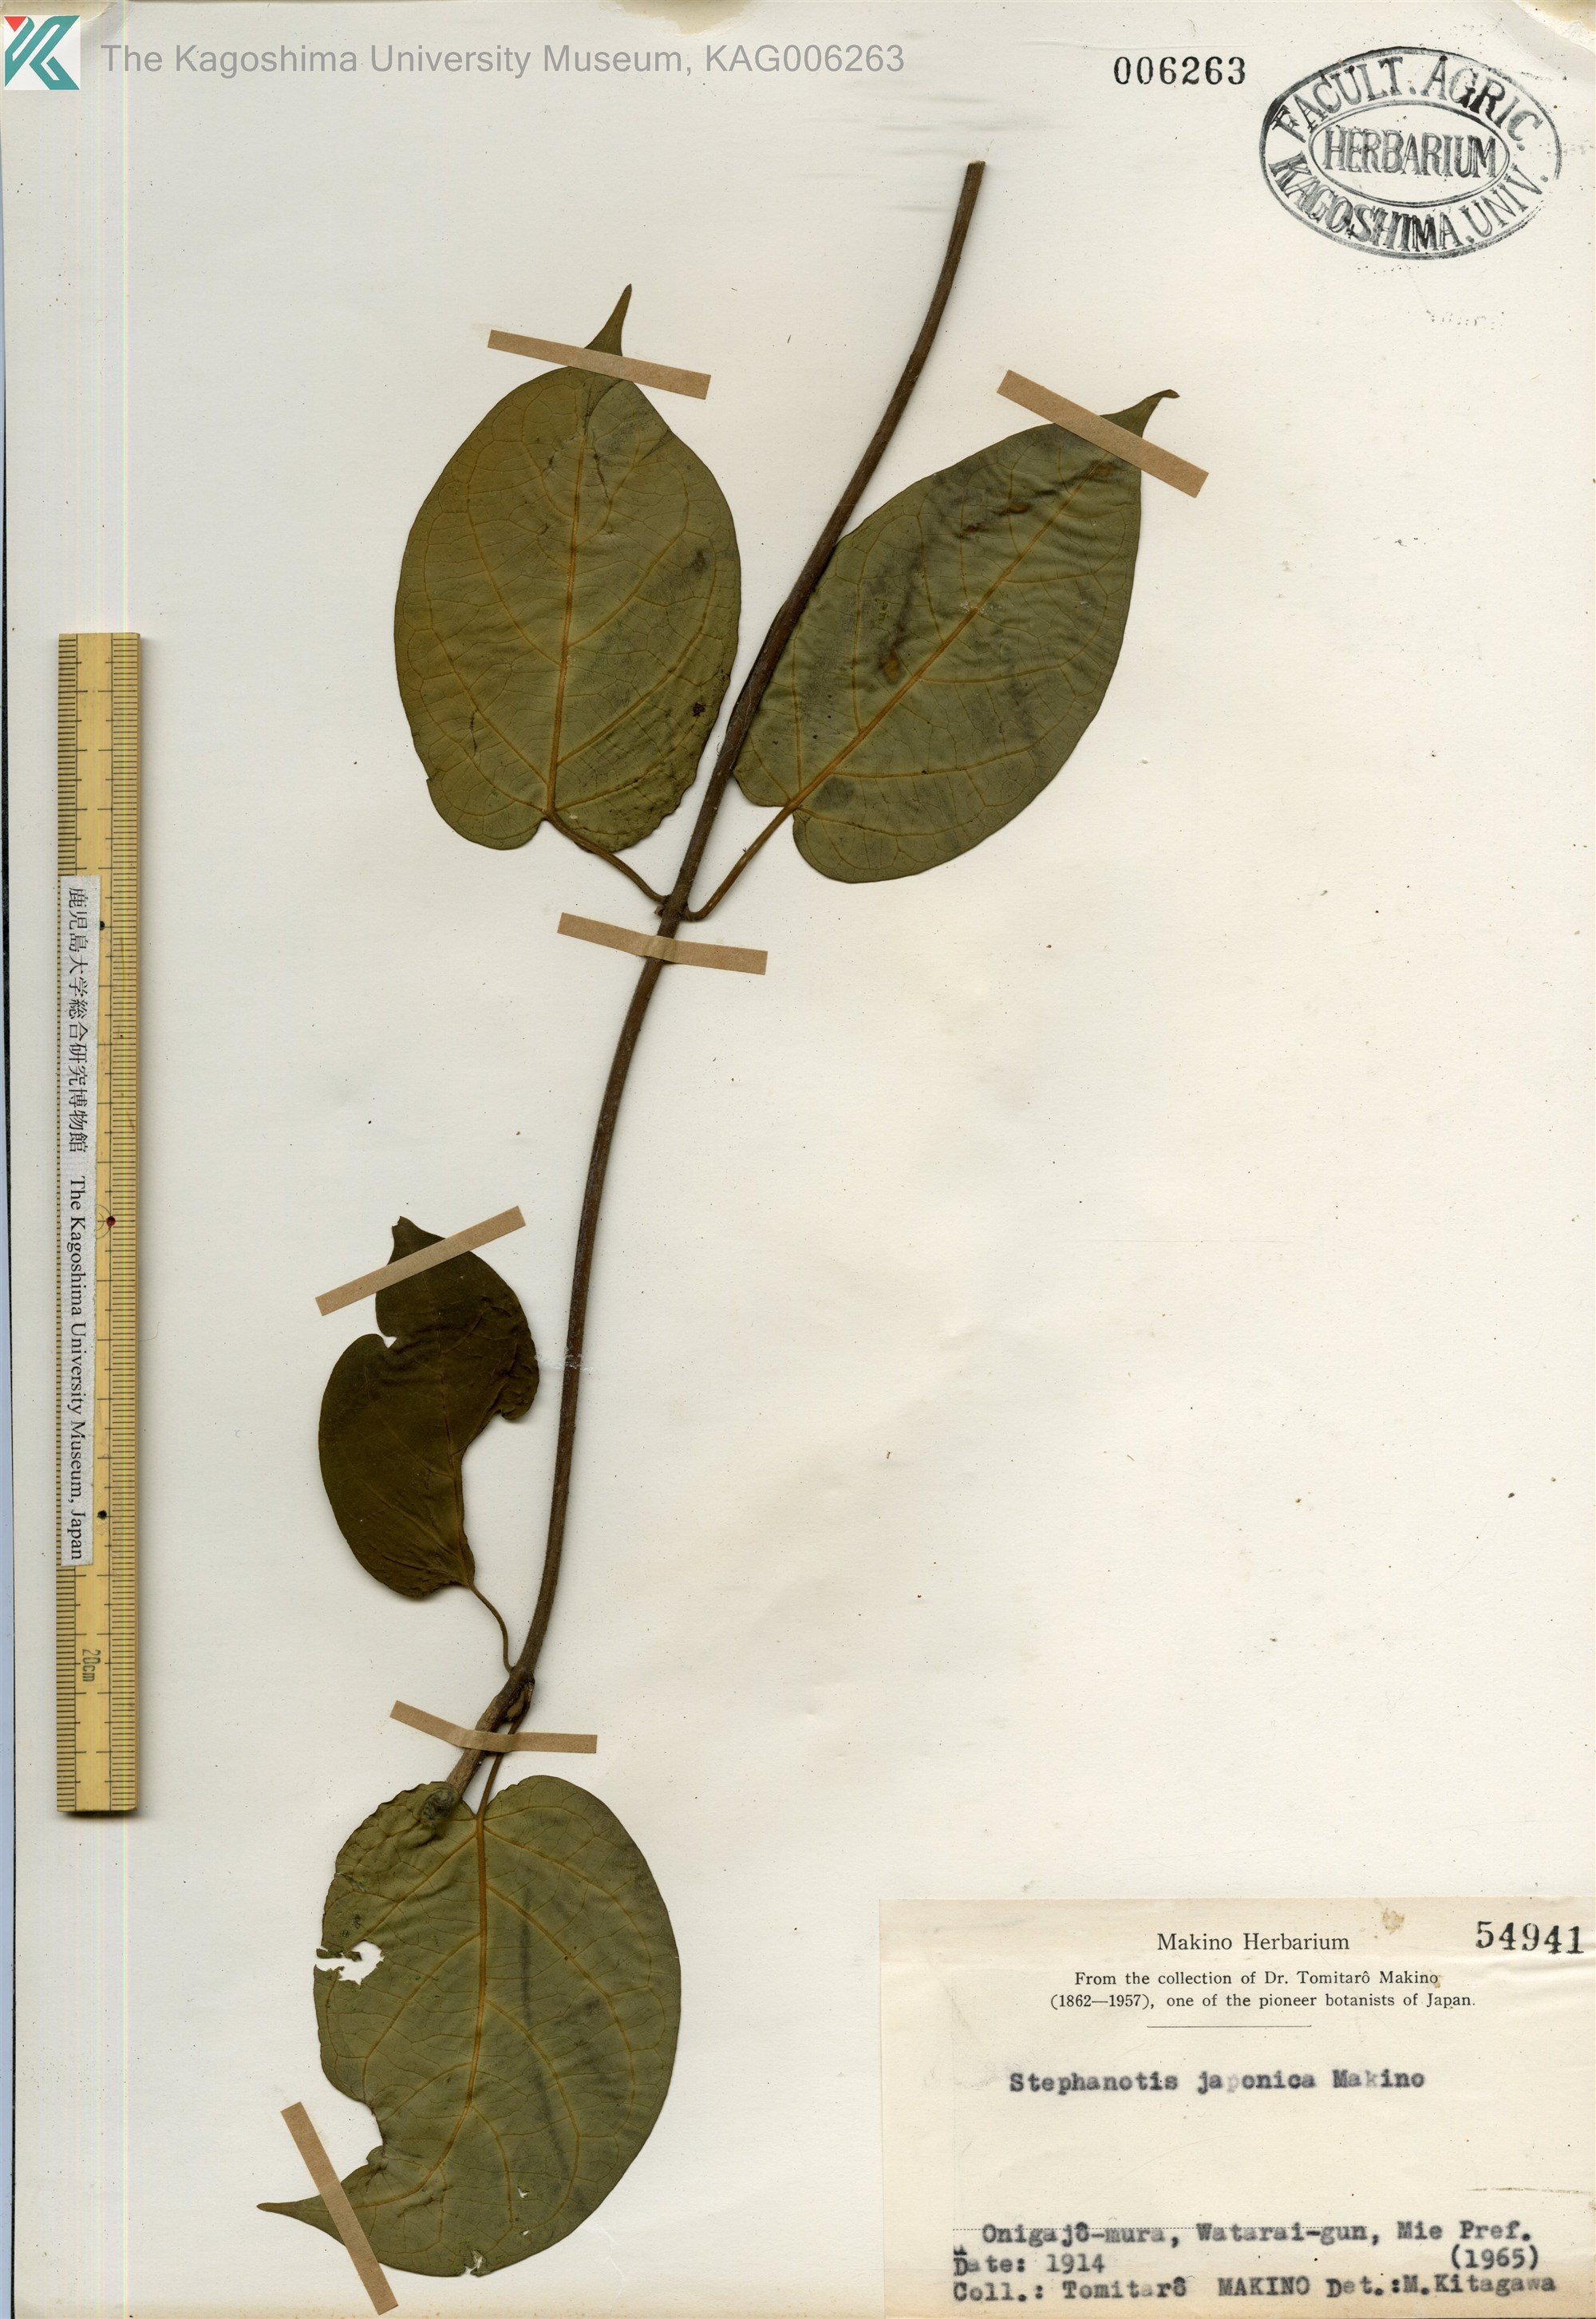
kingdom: Plantae
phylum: Tracheophyta
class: Magnoliopsida
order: Gentianales
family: Apocynaceae
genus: Jasminanthes
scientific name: Jasminanthes mucronata
